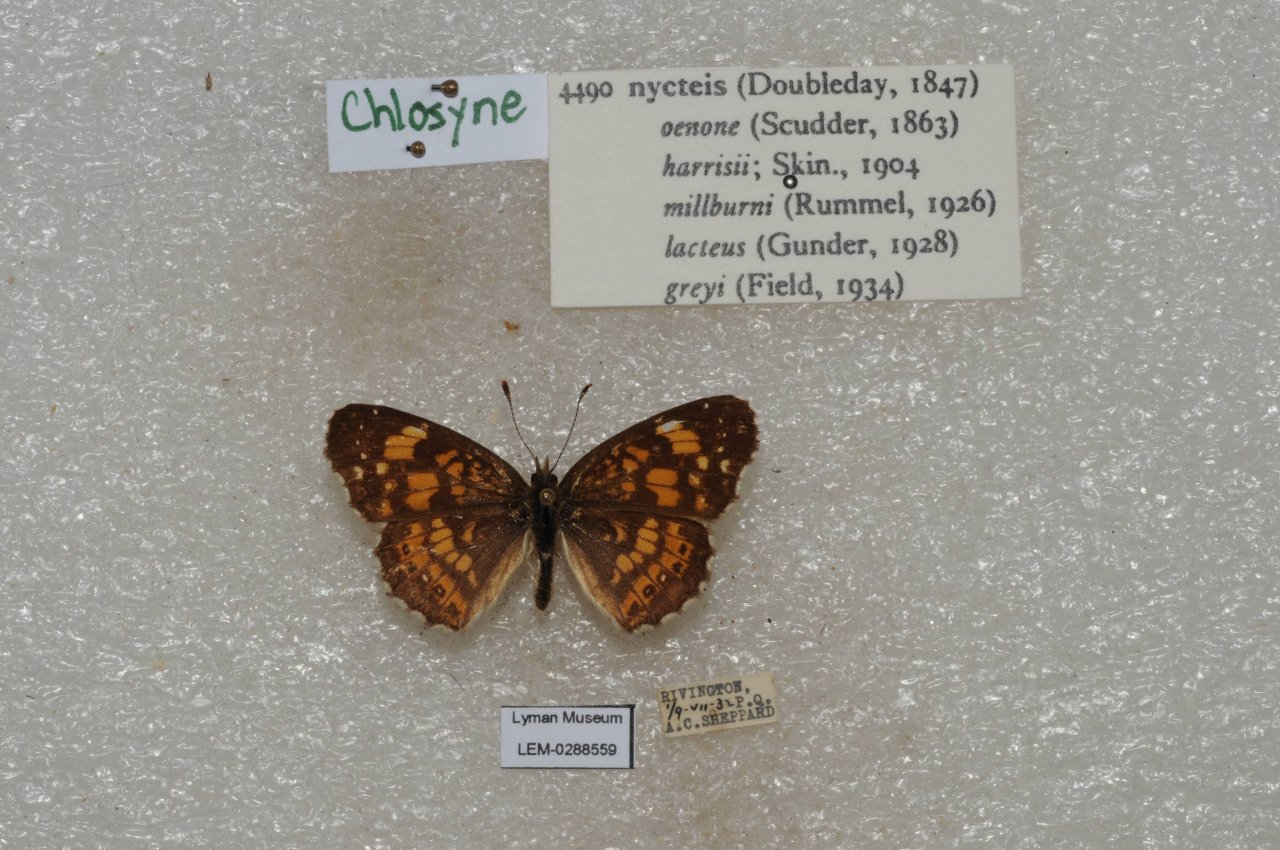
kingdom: Animalia
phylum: Arthropoda
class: Insecta
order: Lepidoptera
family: Nymphalidae
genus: Chlosyne
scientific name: Chlosyne nycteis
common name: Silvery Checkerspot
